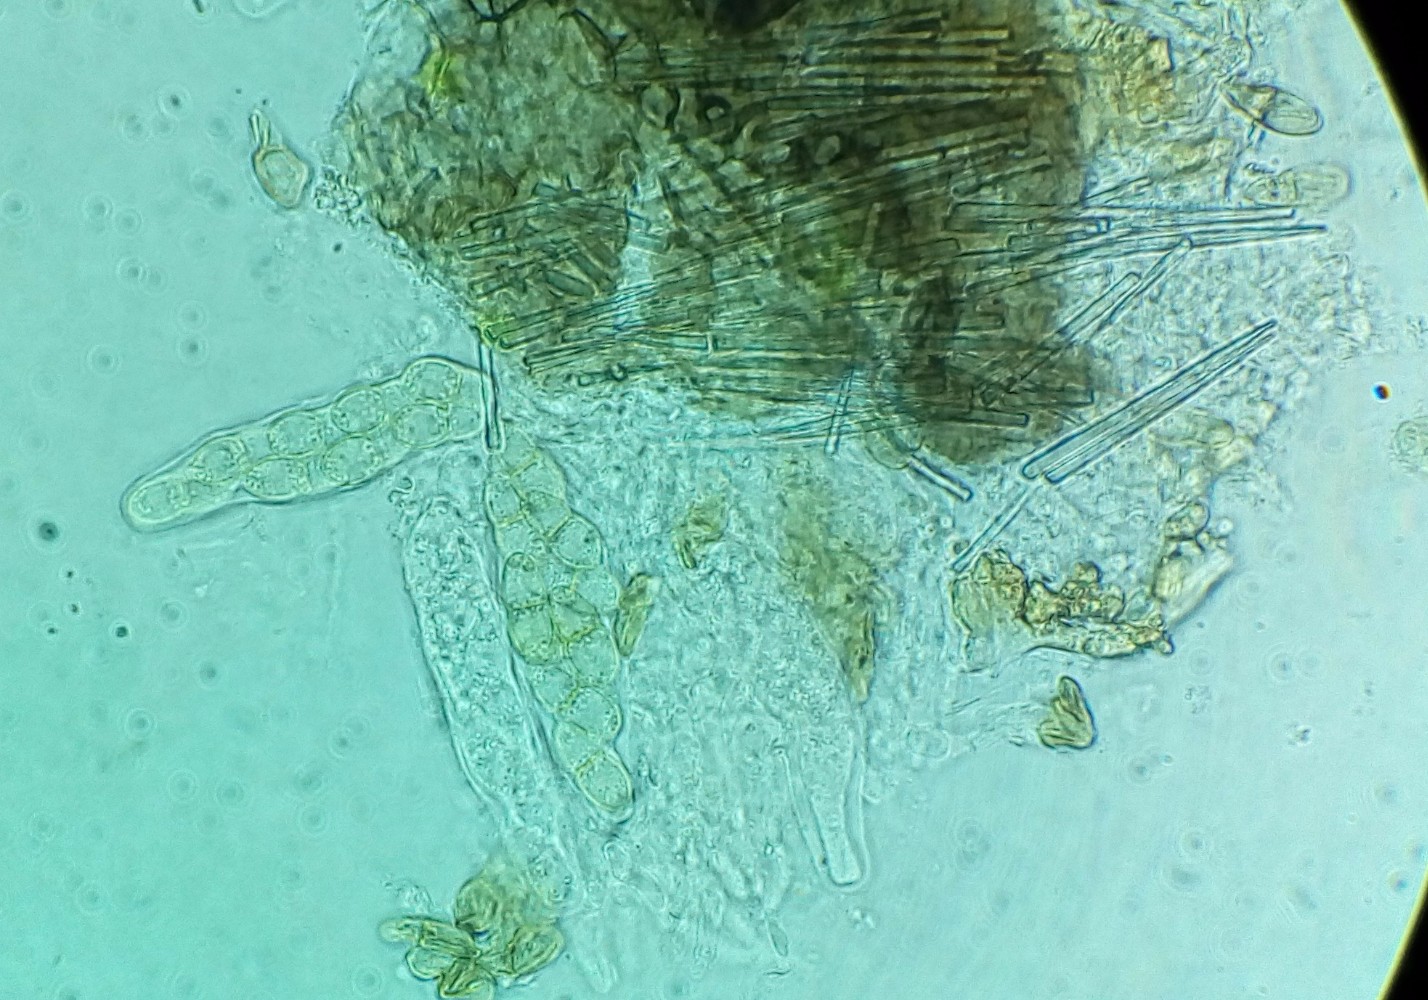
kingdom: Fungi
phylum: Ascomycota
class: Dothideomycetes
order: Venturiales
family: Venturiaceae
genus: Venturia
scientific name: Venturia maculiformis
